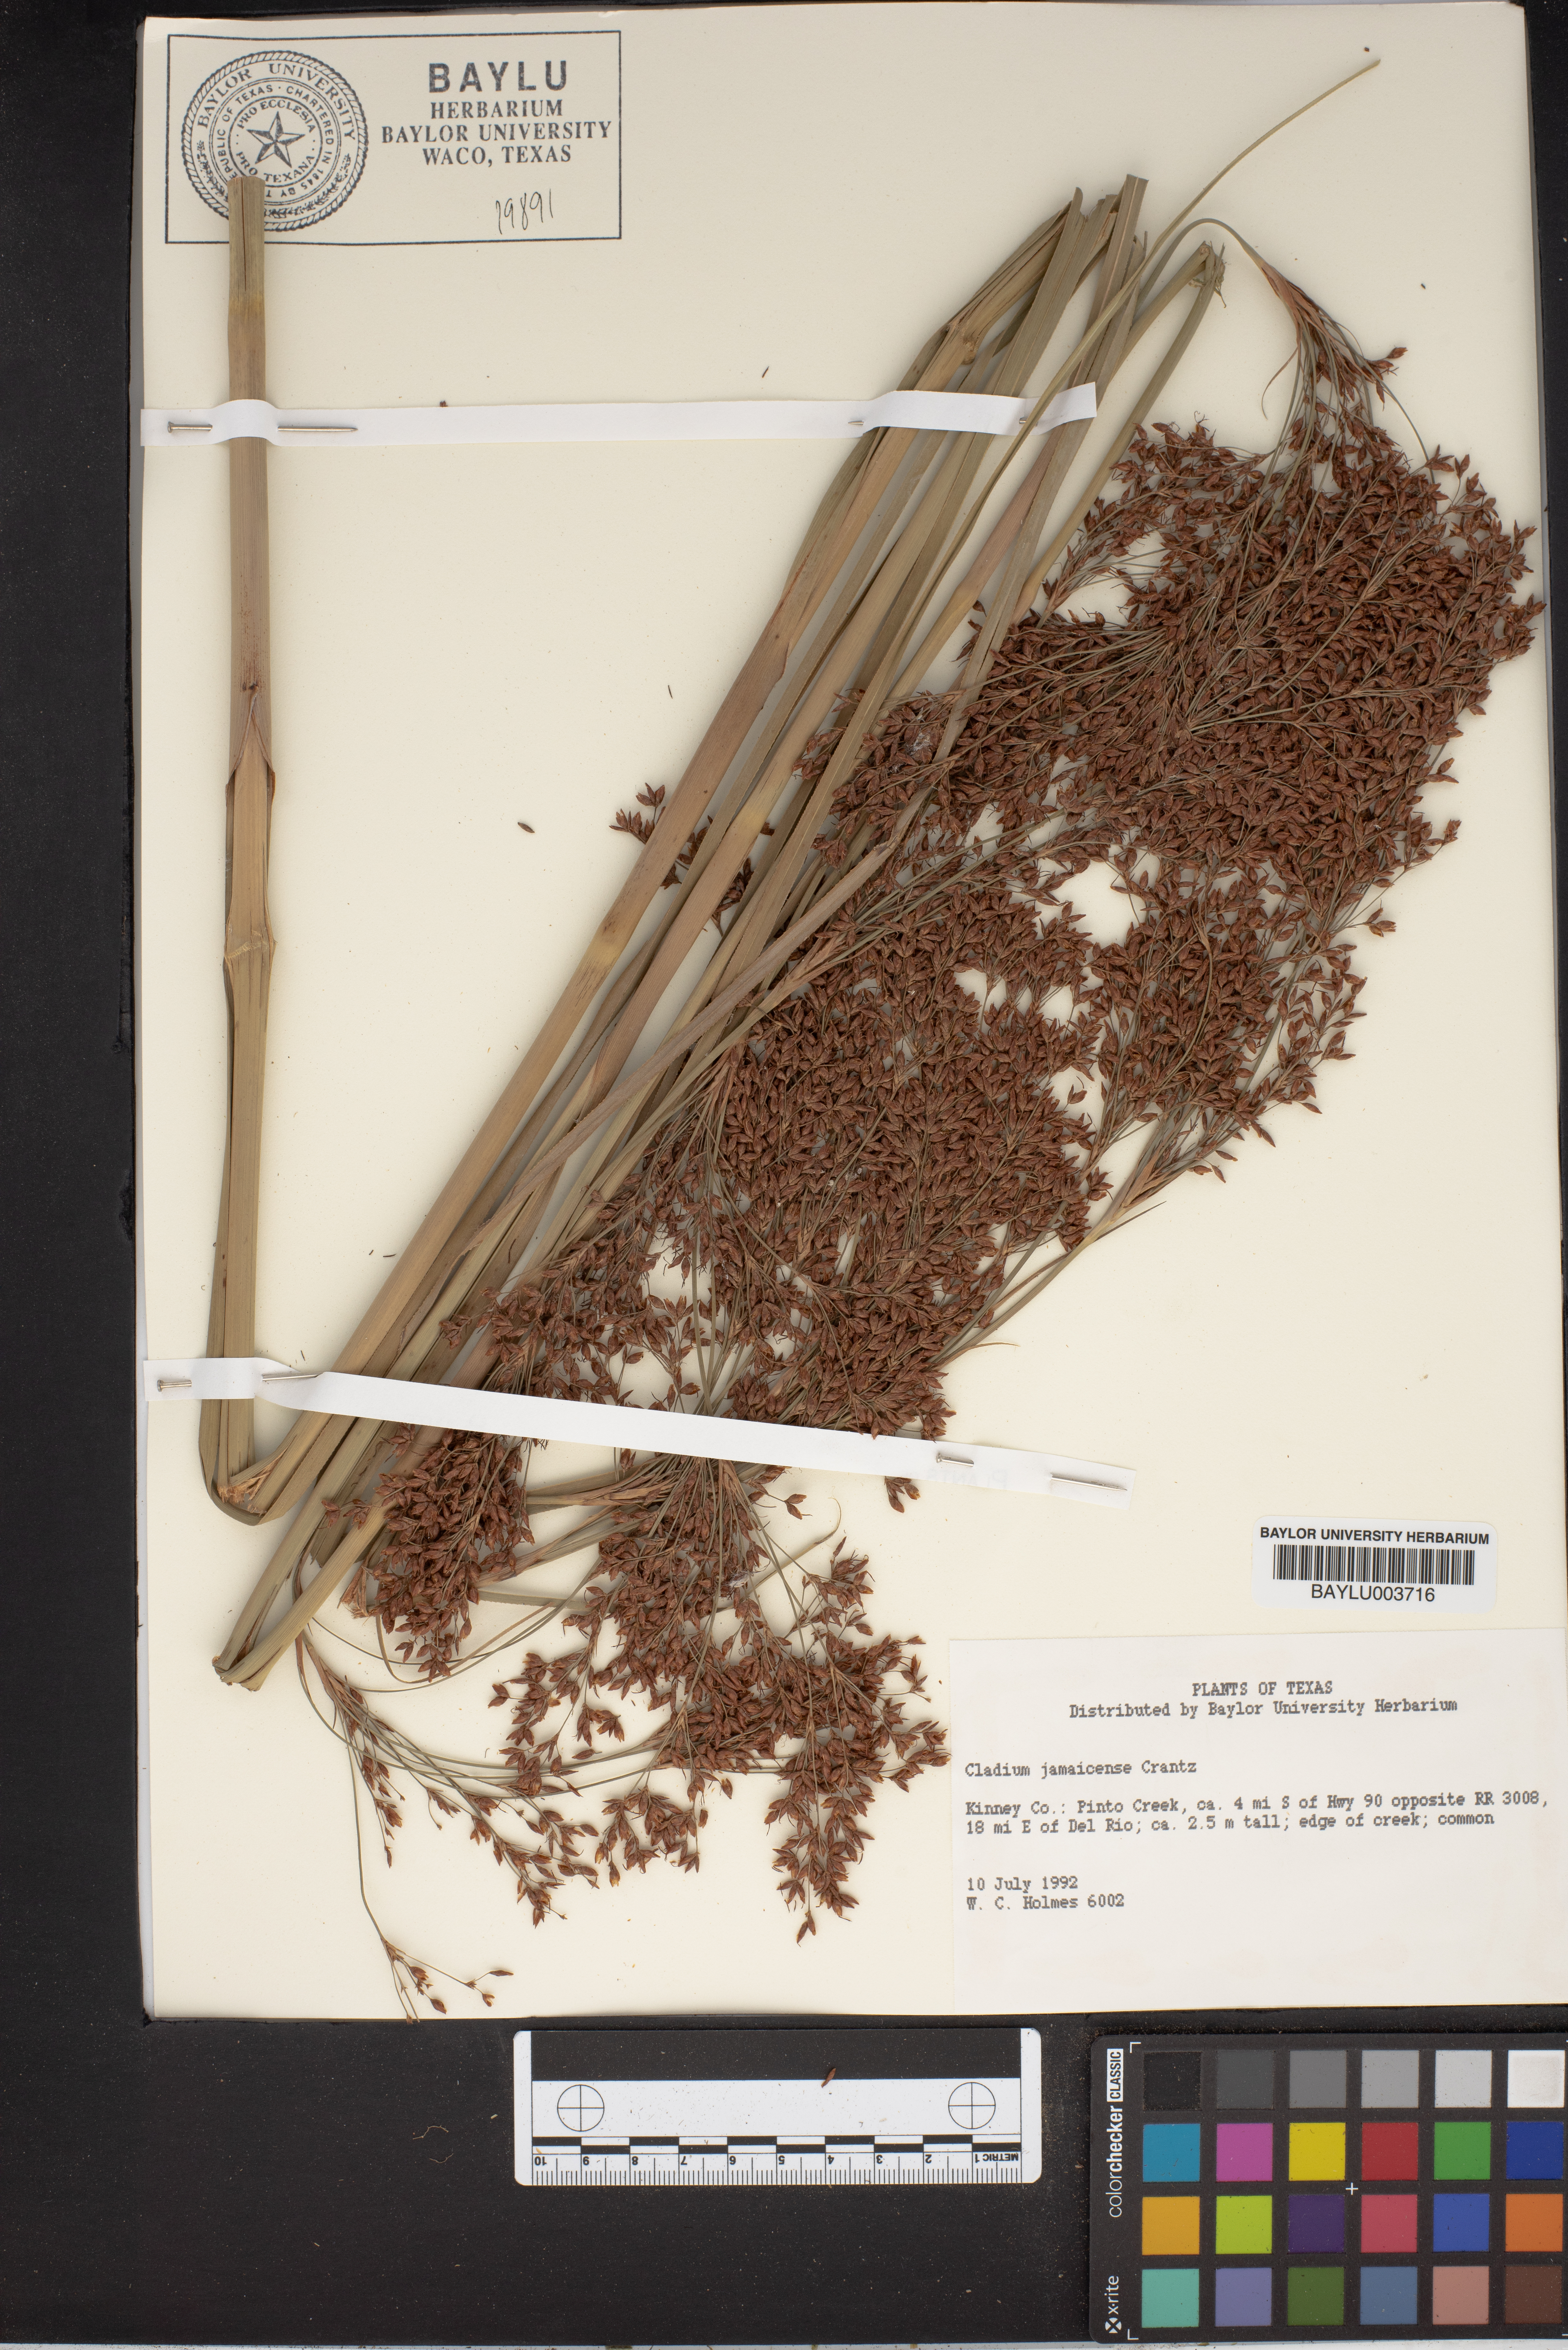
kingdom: Plantae
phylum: Tracheophyta
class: Liliopsida
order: Poales
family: Cyperaceae
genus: Cladium
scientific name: Cladium mariscus
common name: Great fen-sedge
